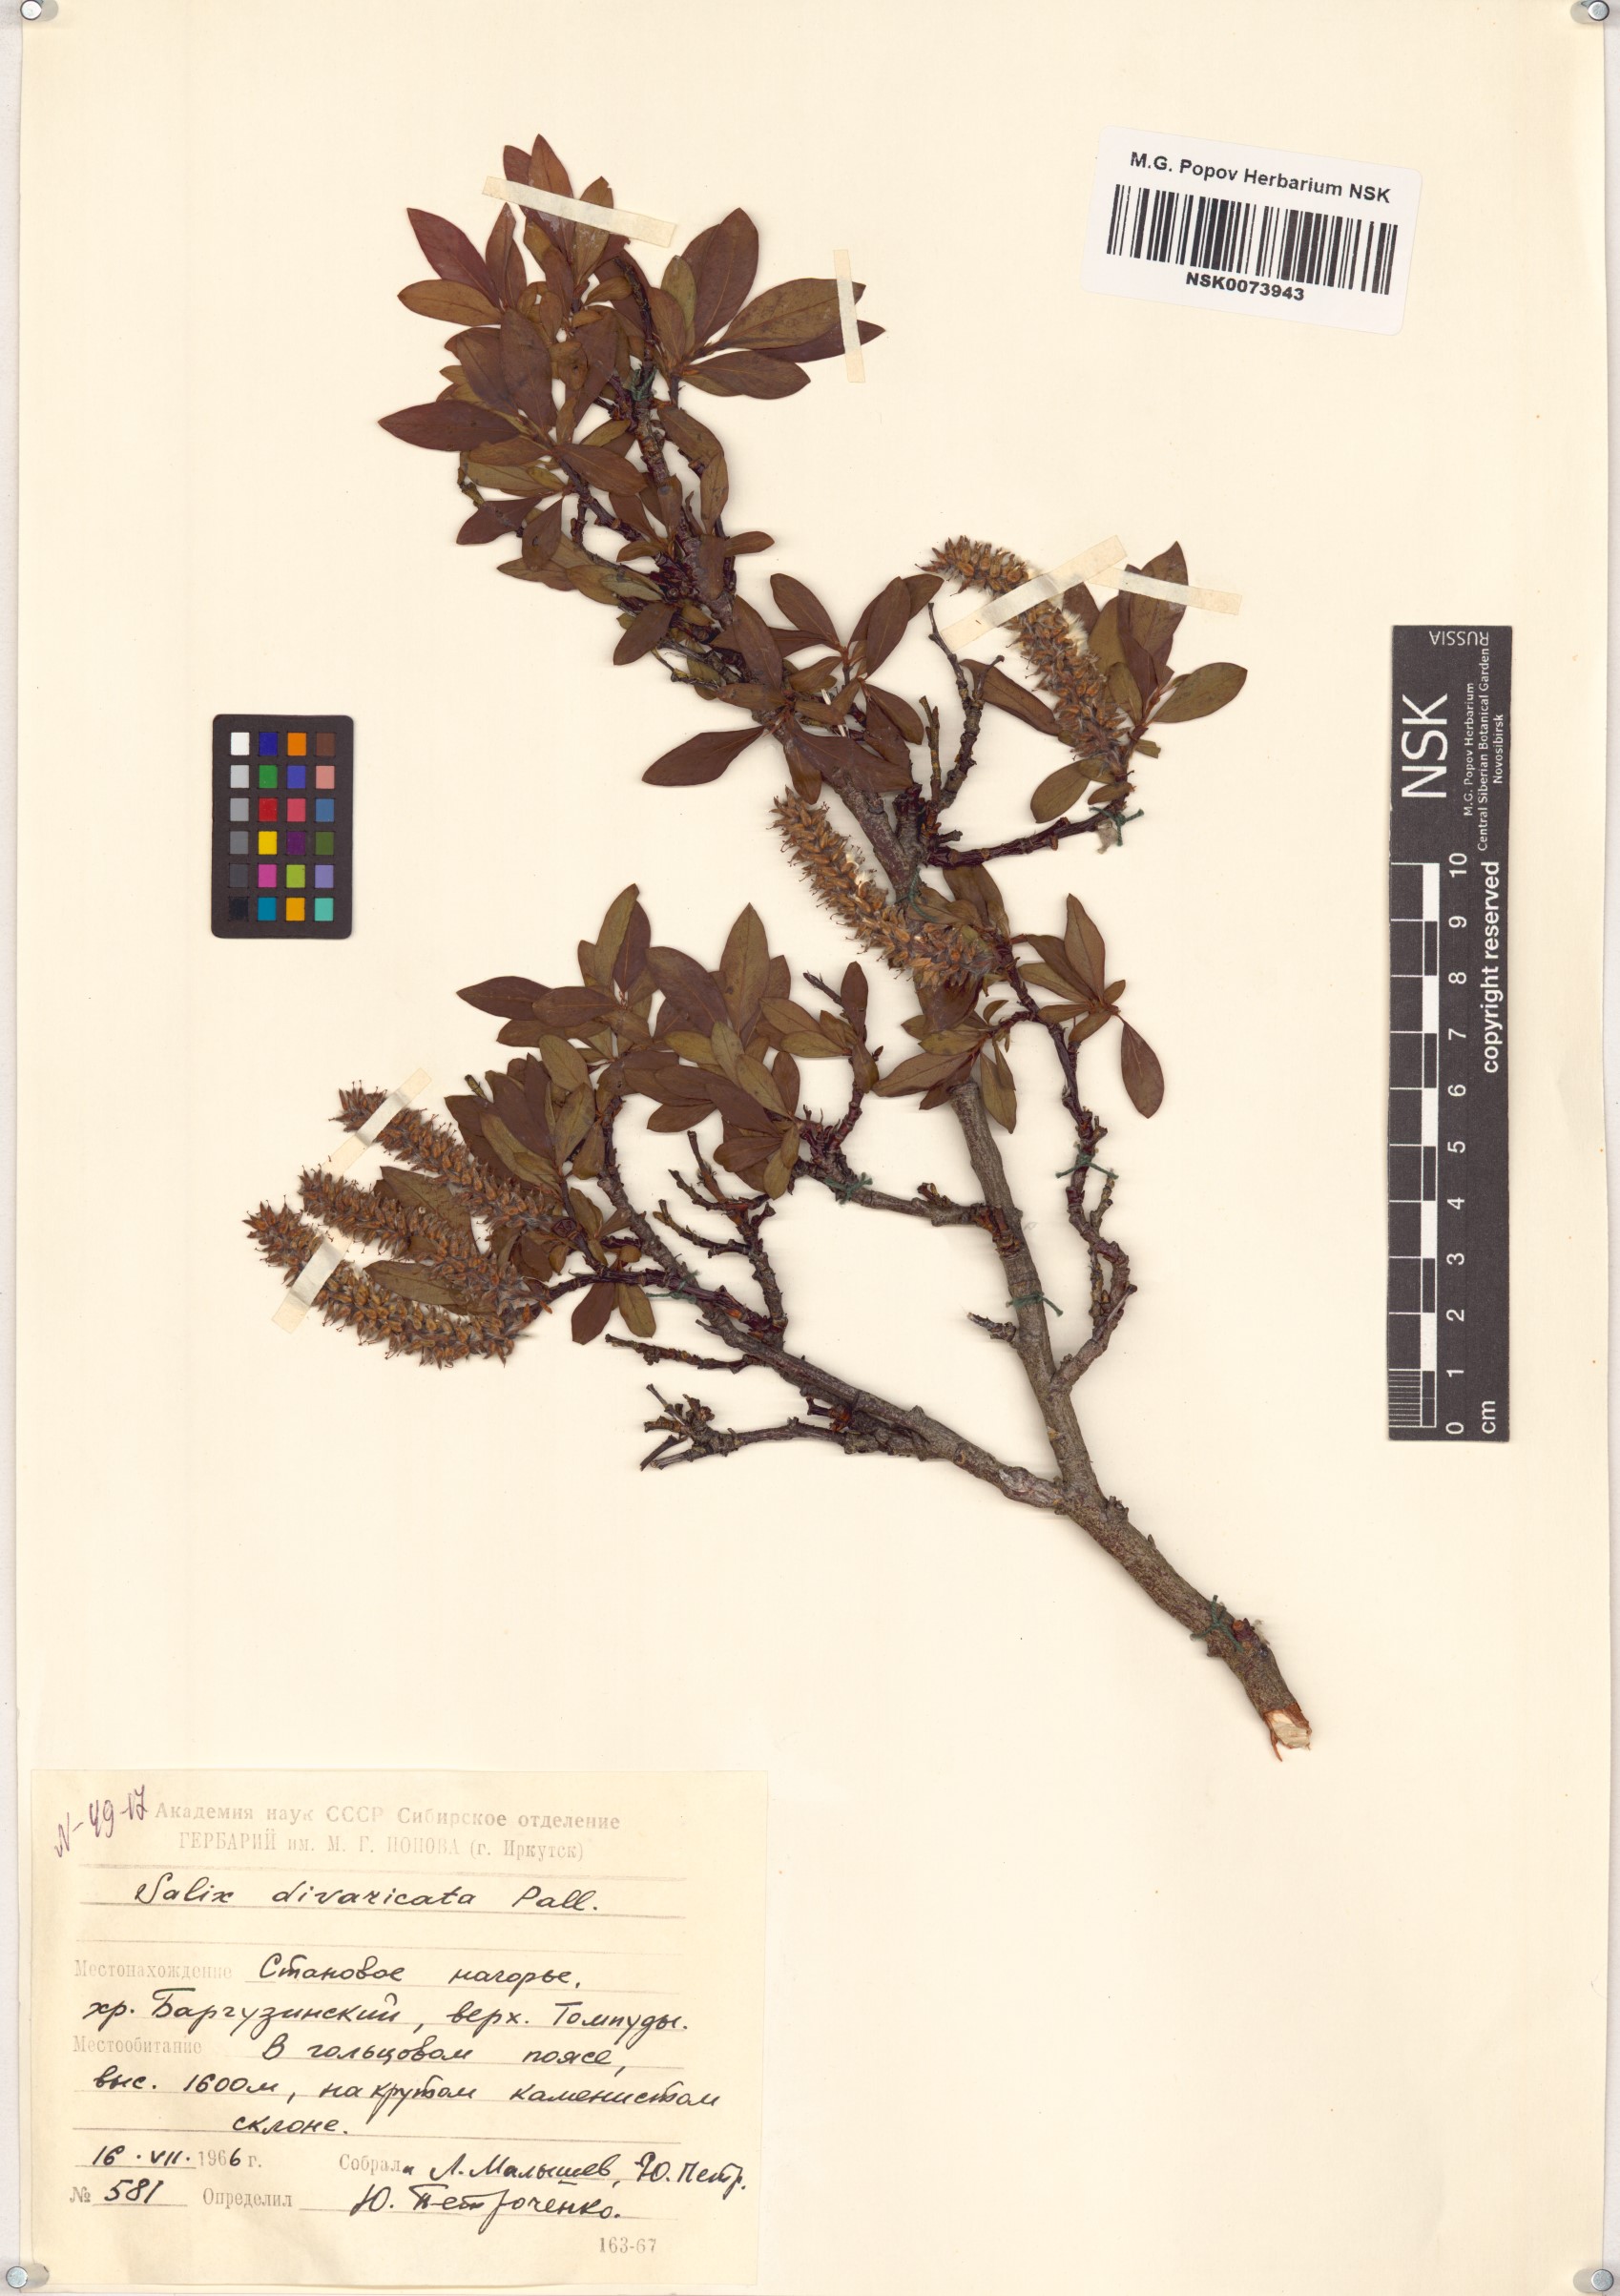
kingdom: Plantae
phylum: Tracheophyta
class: Magnoliopsida
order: Malpighiales
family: Salicaceae
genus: Salix
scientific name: Salix divaricata
